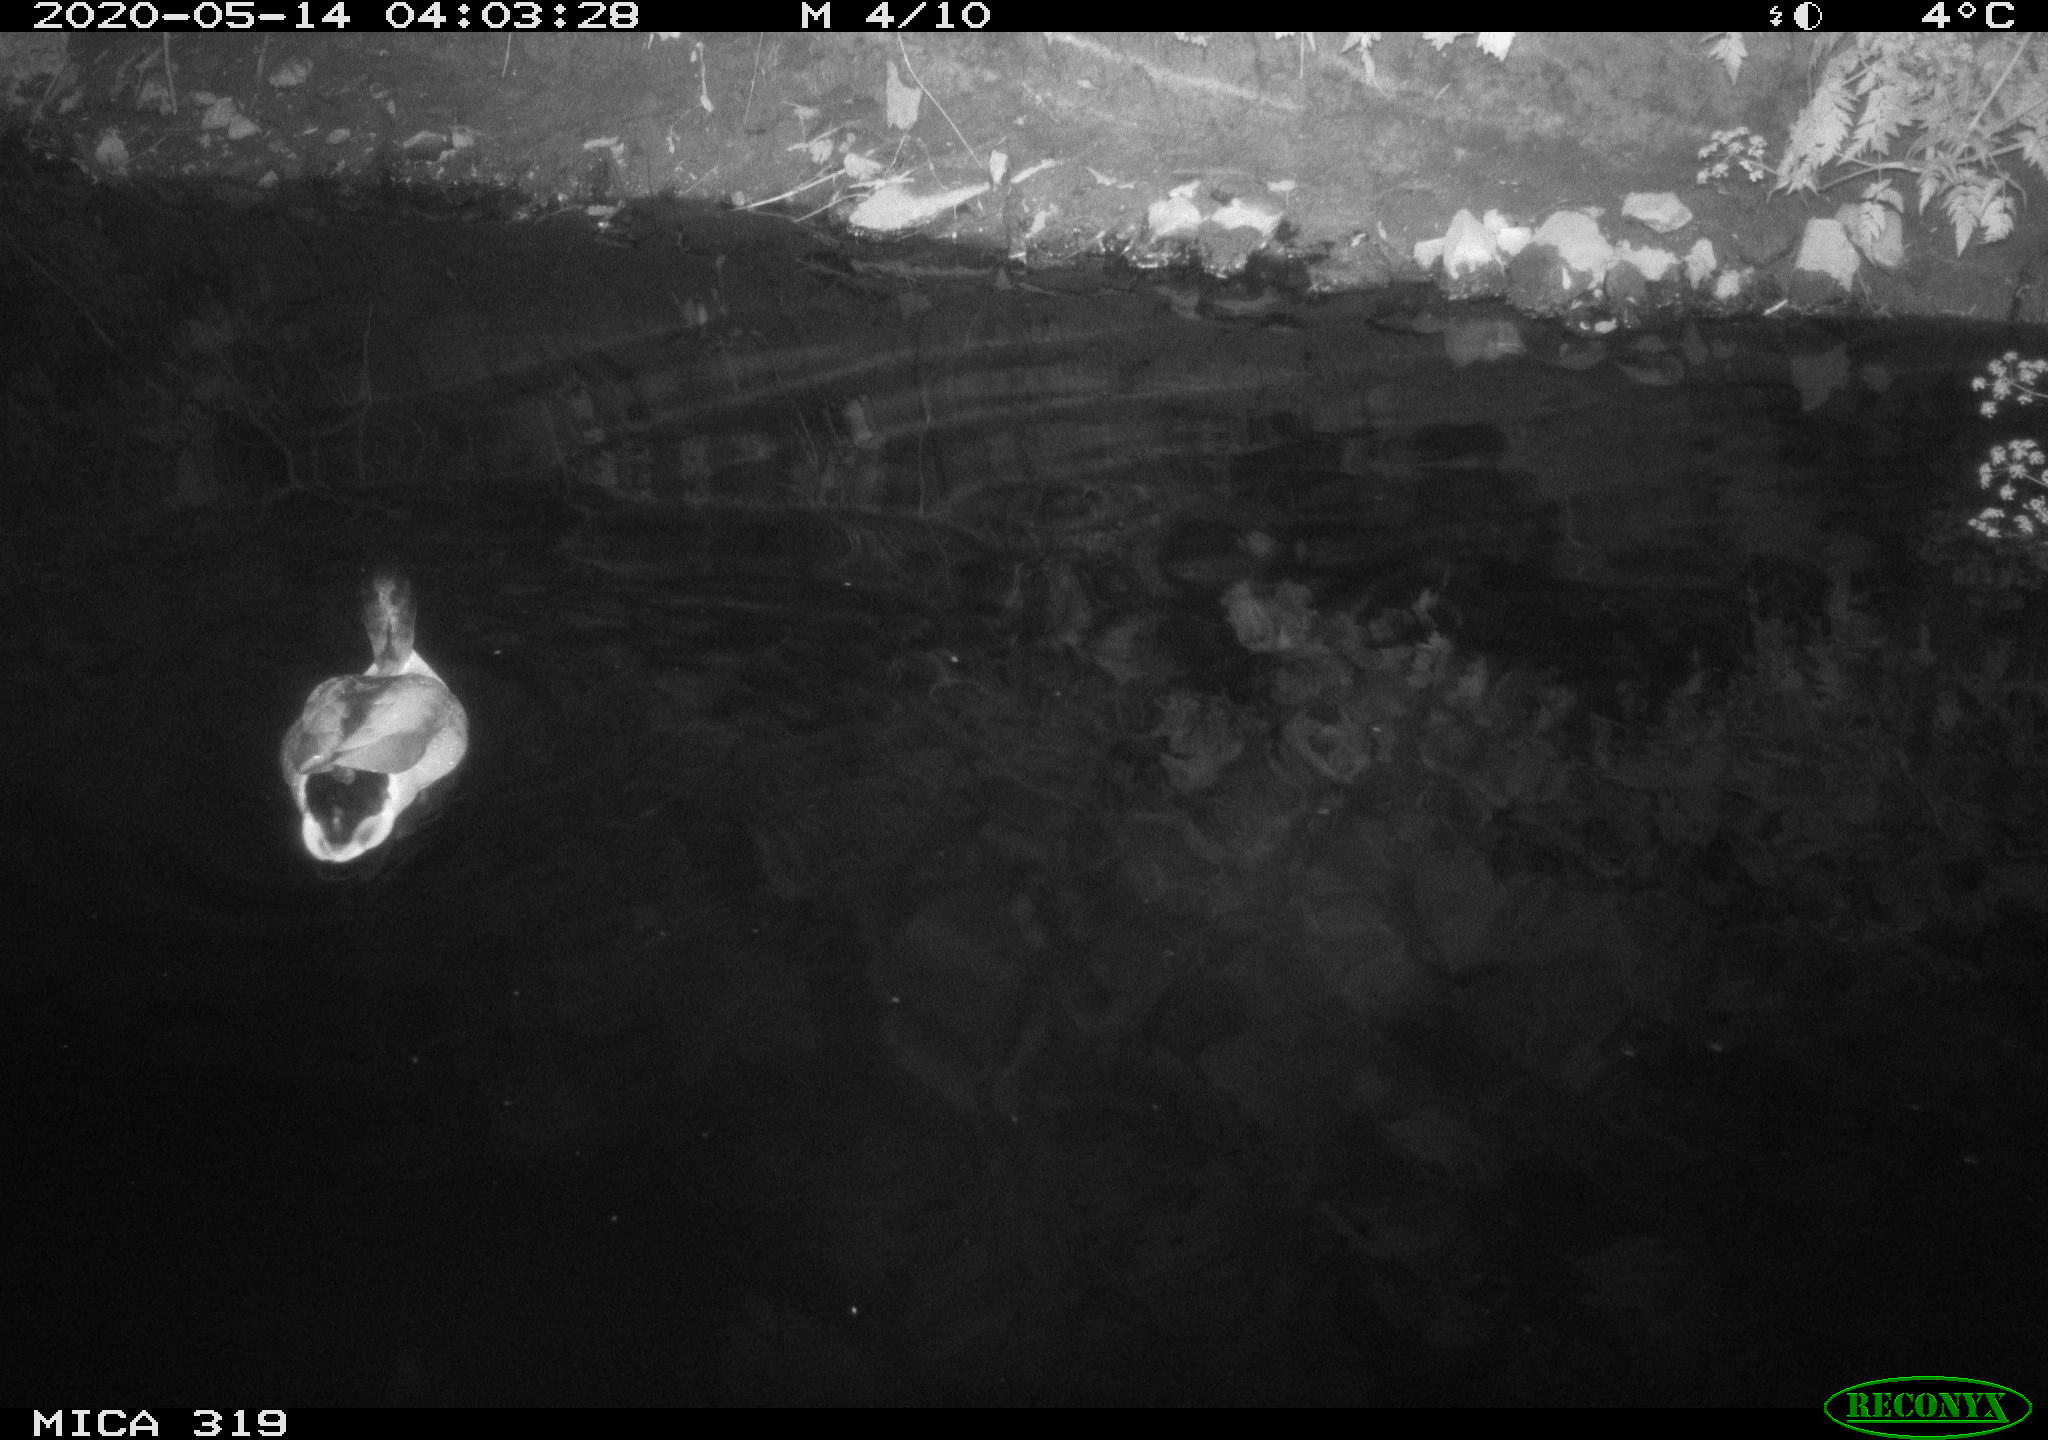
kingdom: Animalia
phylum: Chordata
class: Aves
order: Anseriformes
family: Anatidae
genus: Anas
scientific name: Anas platyrhynchos
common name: Mallard
